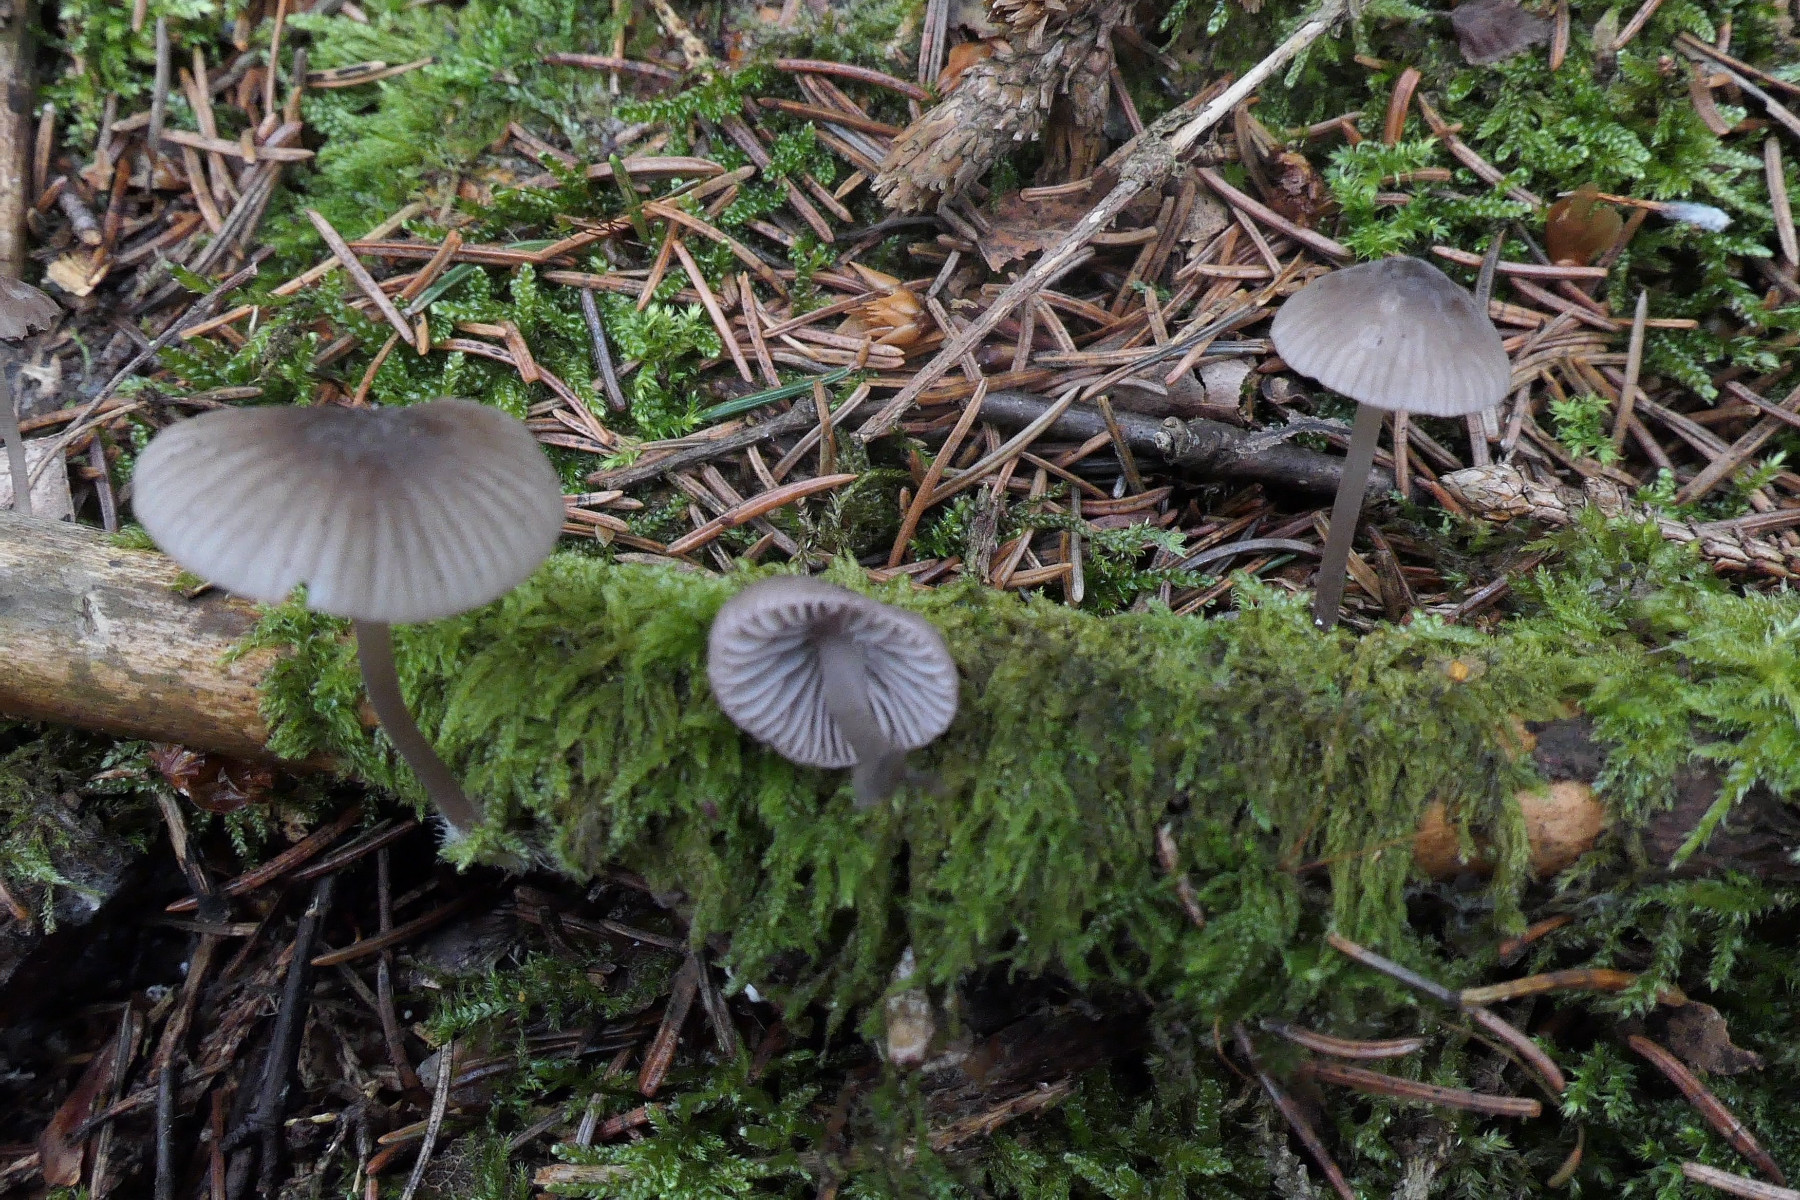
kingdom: Fungi
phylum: Basidiomycota
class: Agaricomycetes
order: Agaricales
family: Mycenaceae
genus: Mycena
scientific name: Mycena rubromarginata
